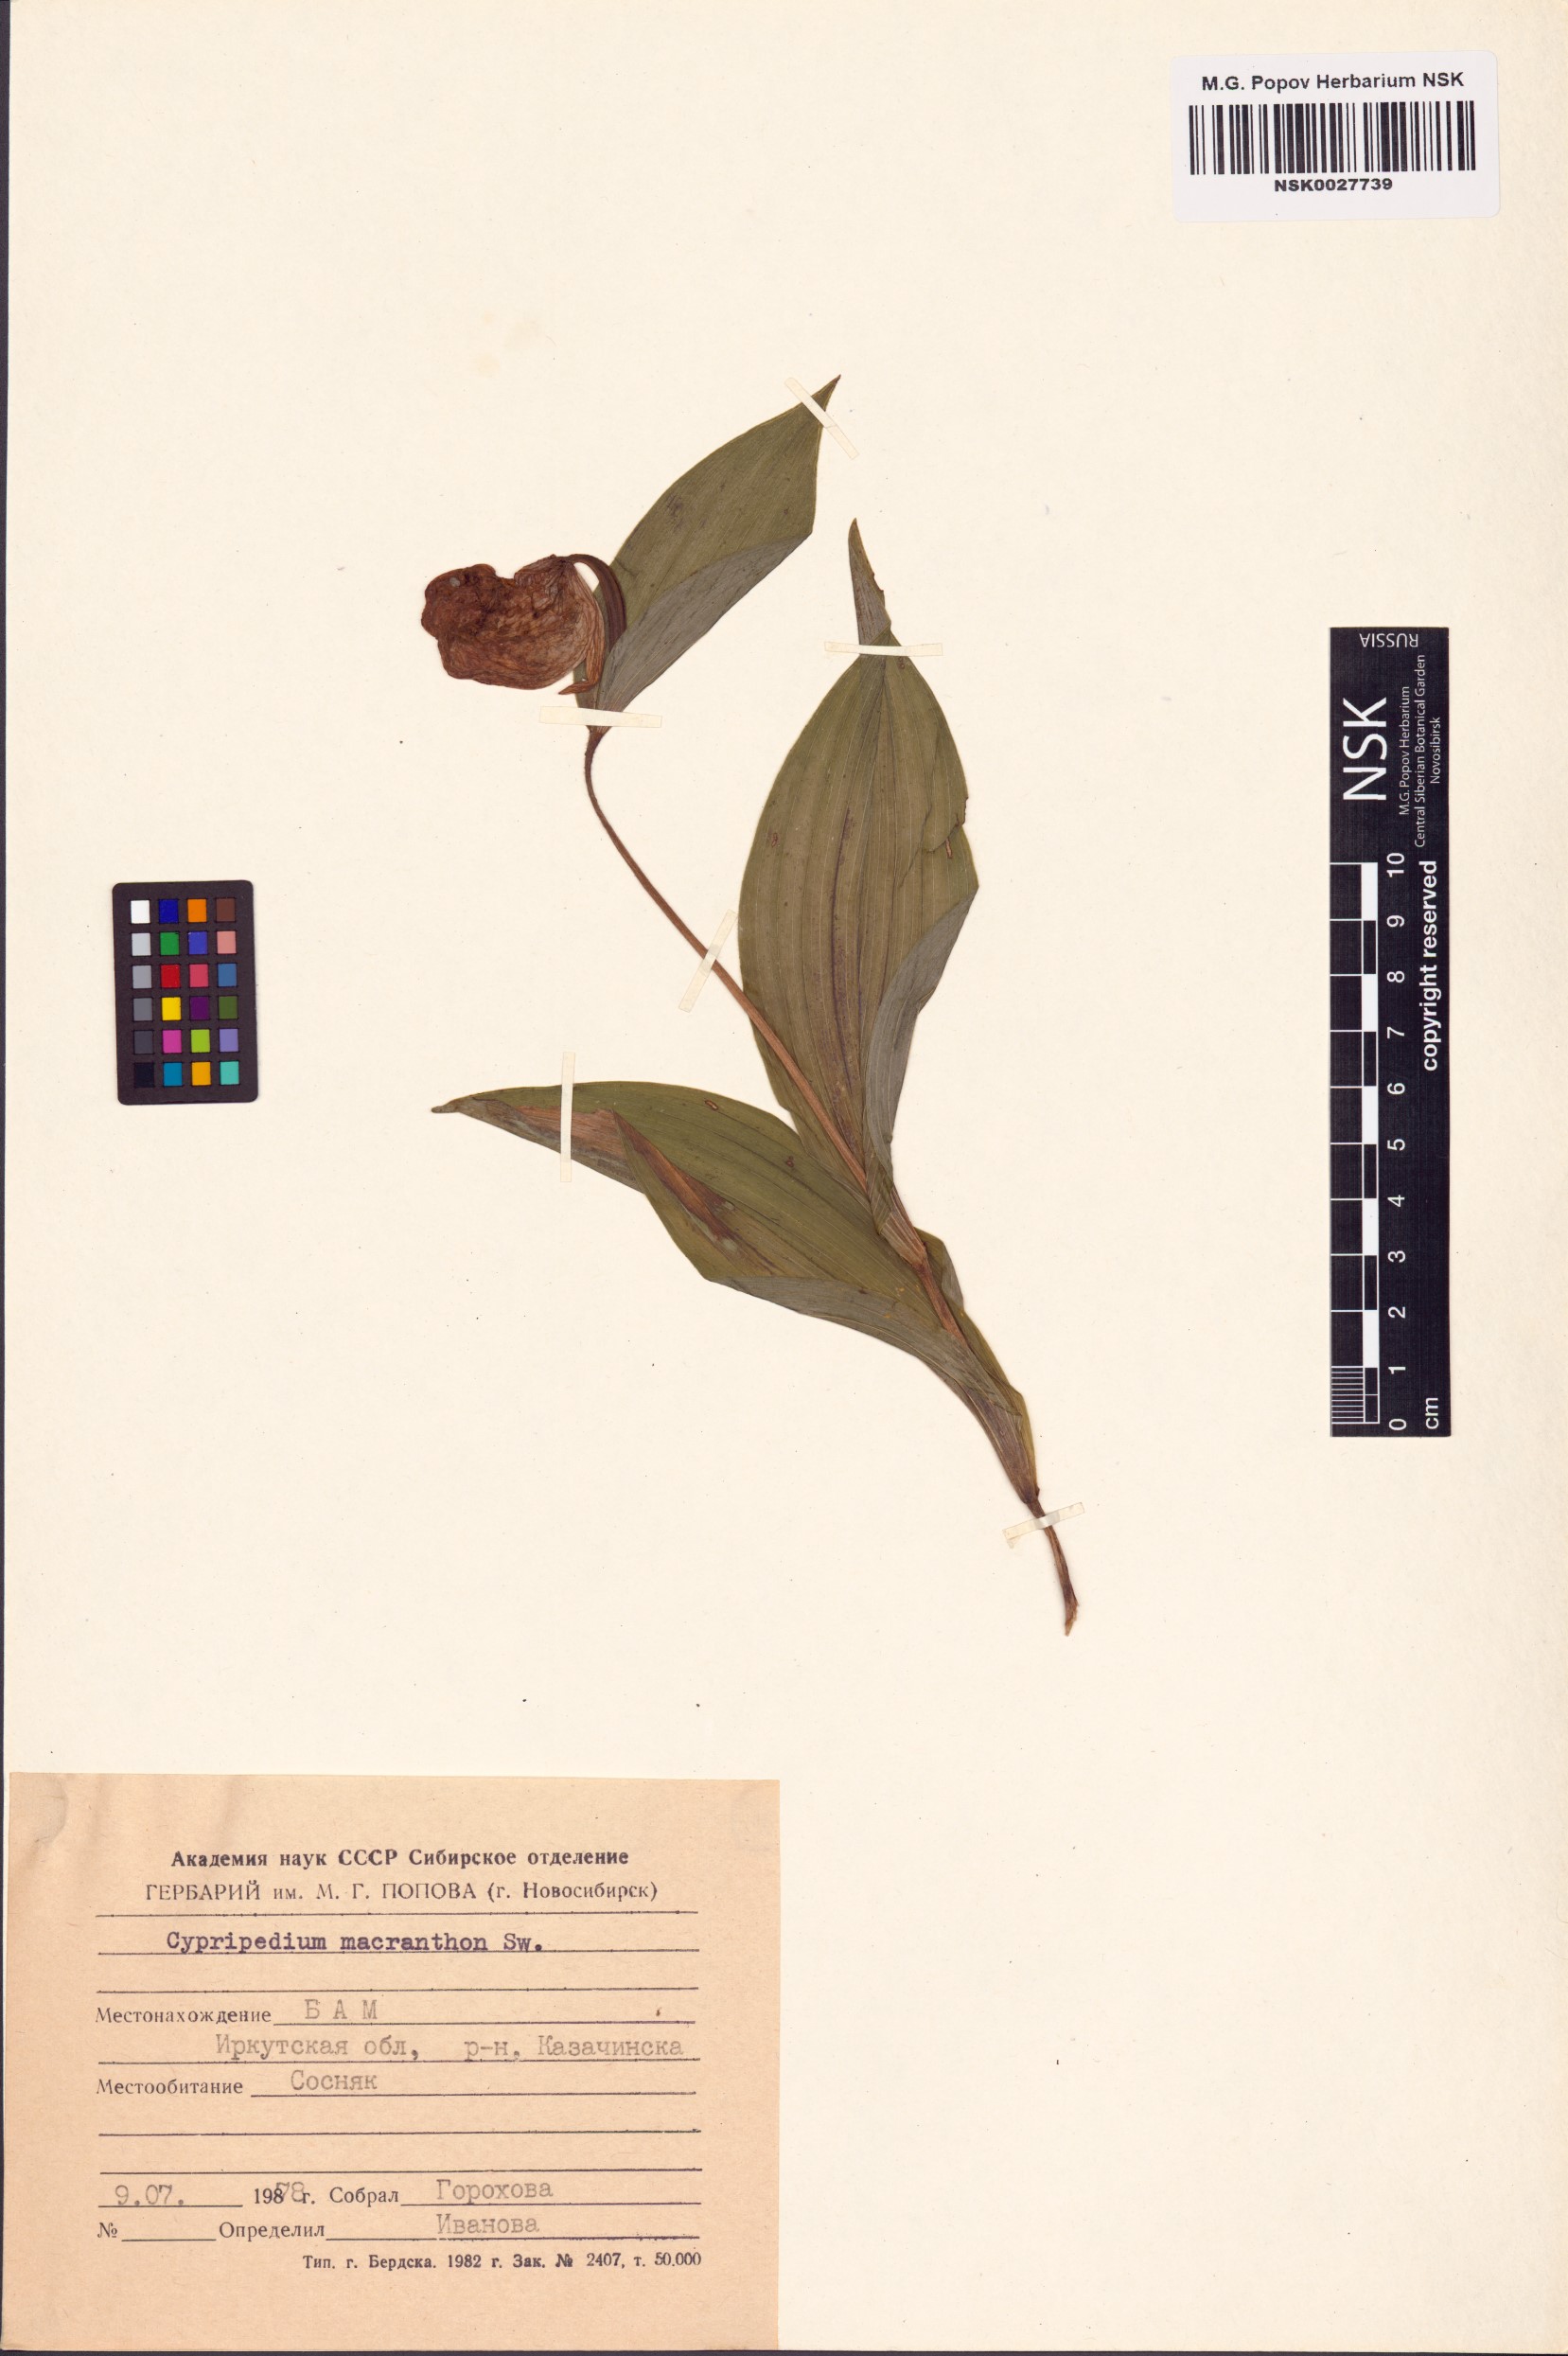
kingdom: Plantae
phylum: Tracheophyta
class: Liliopsida
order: Asparagales
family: Orchidaceae
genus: Cypripedium
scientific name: Cypripedium macranthos
